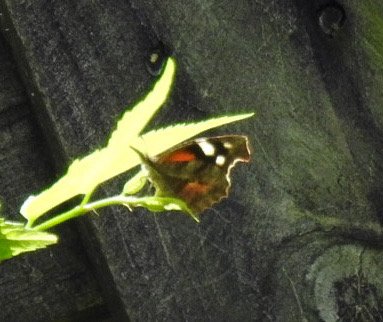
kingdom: Animalia
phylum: Arthropoda
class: Insecta
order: Lepidoptera
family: Nymphalidae
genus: Libytheana
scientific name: Libytheana carinenta
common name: American Snout
